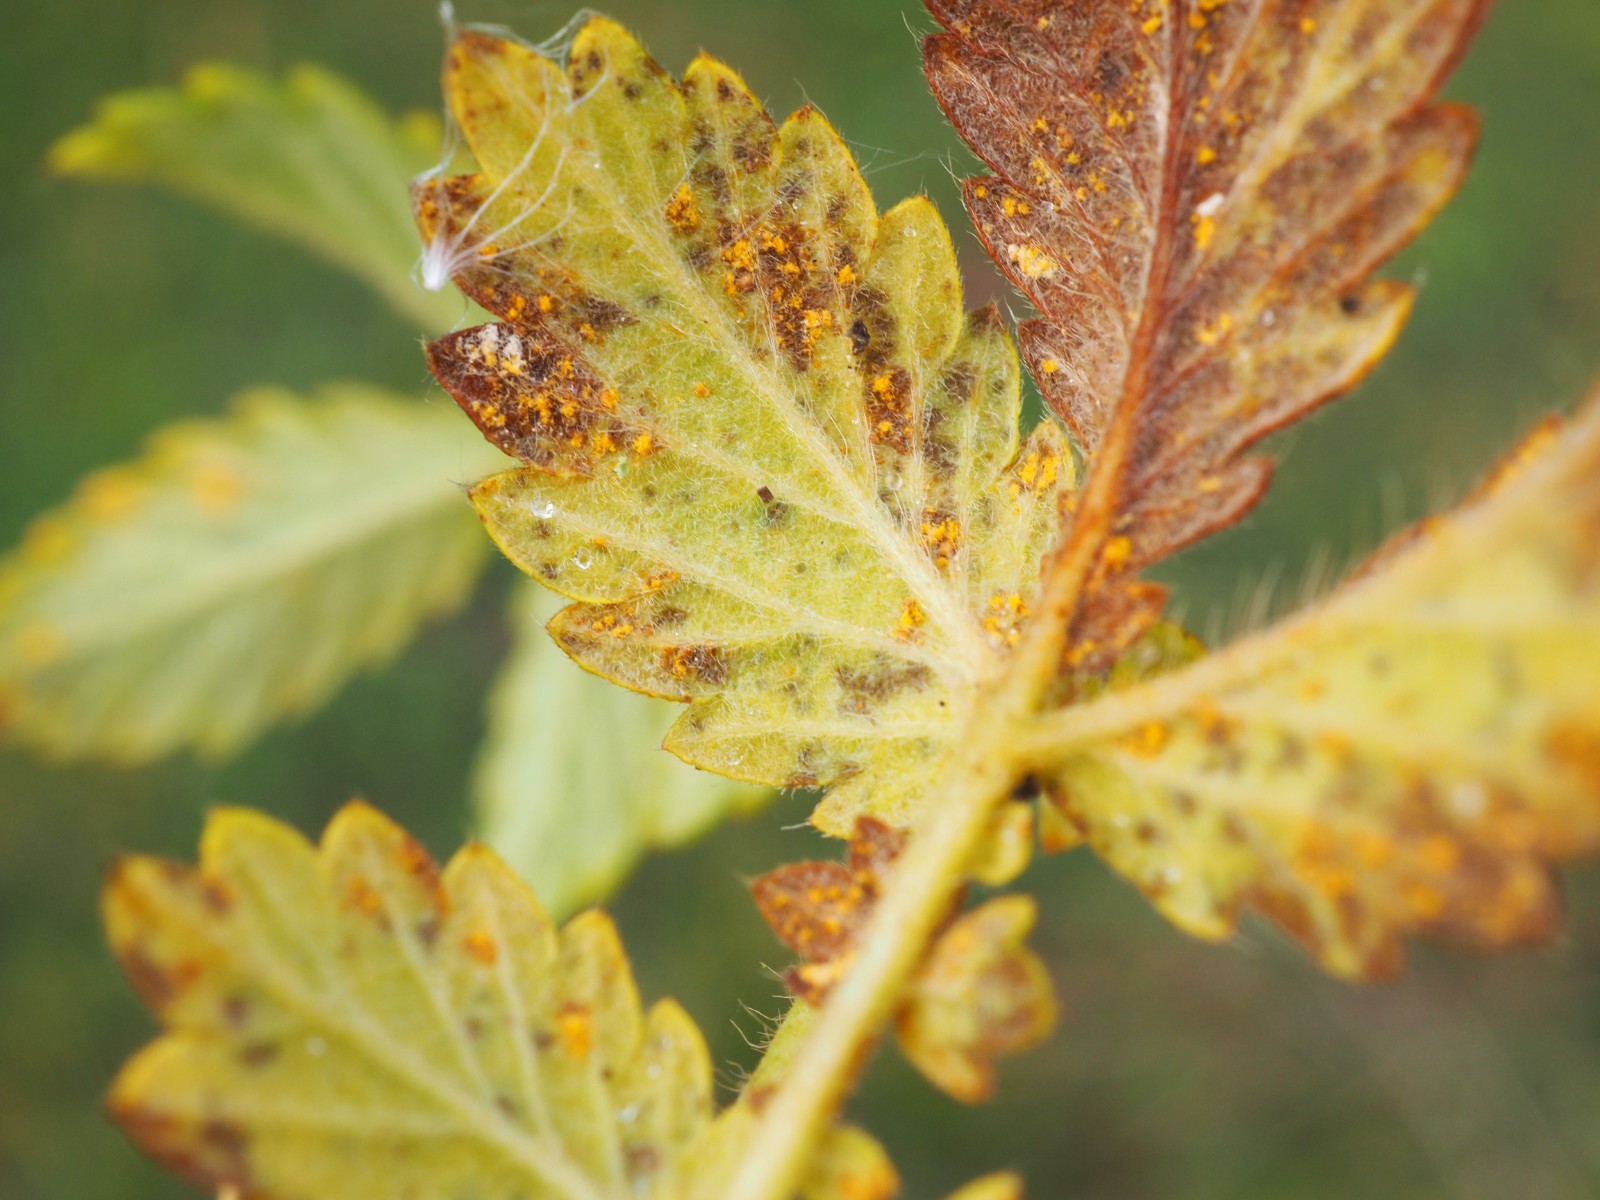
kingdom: Fungi
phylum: Basidiomycota
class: Pucciniomycetes
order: Pucciniales
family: Cronartiaceae
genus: Quasipucciniastrum
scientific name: Quasipucciniastrum ochraceum
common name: agermåne-nålerust
